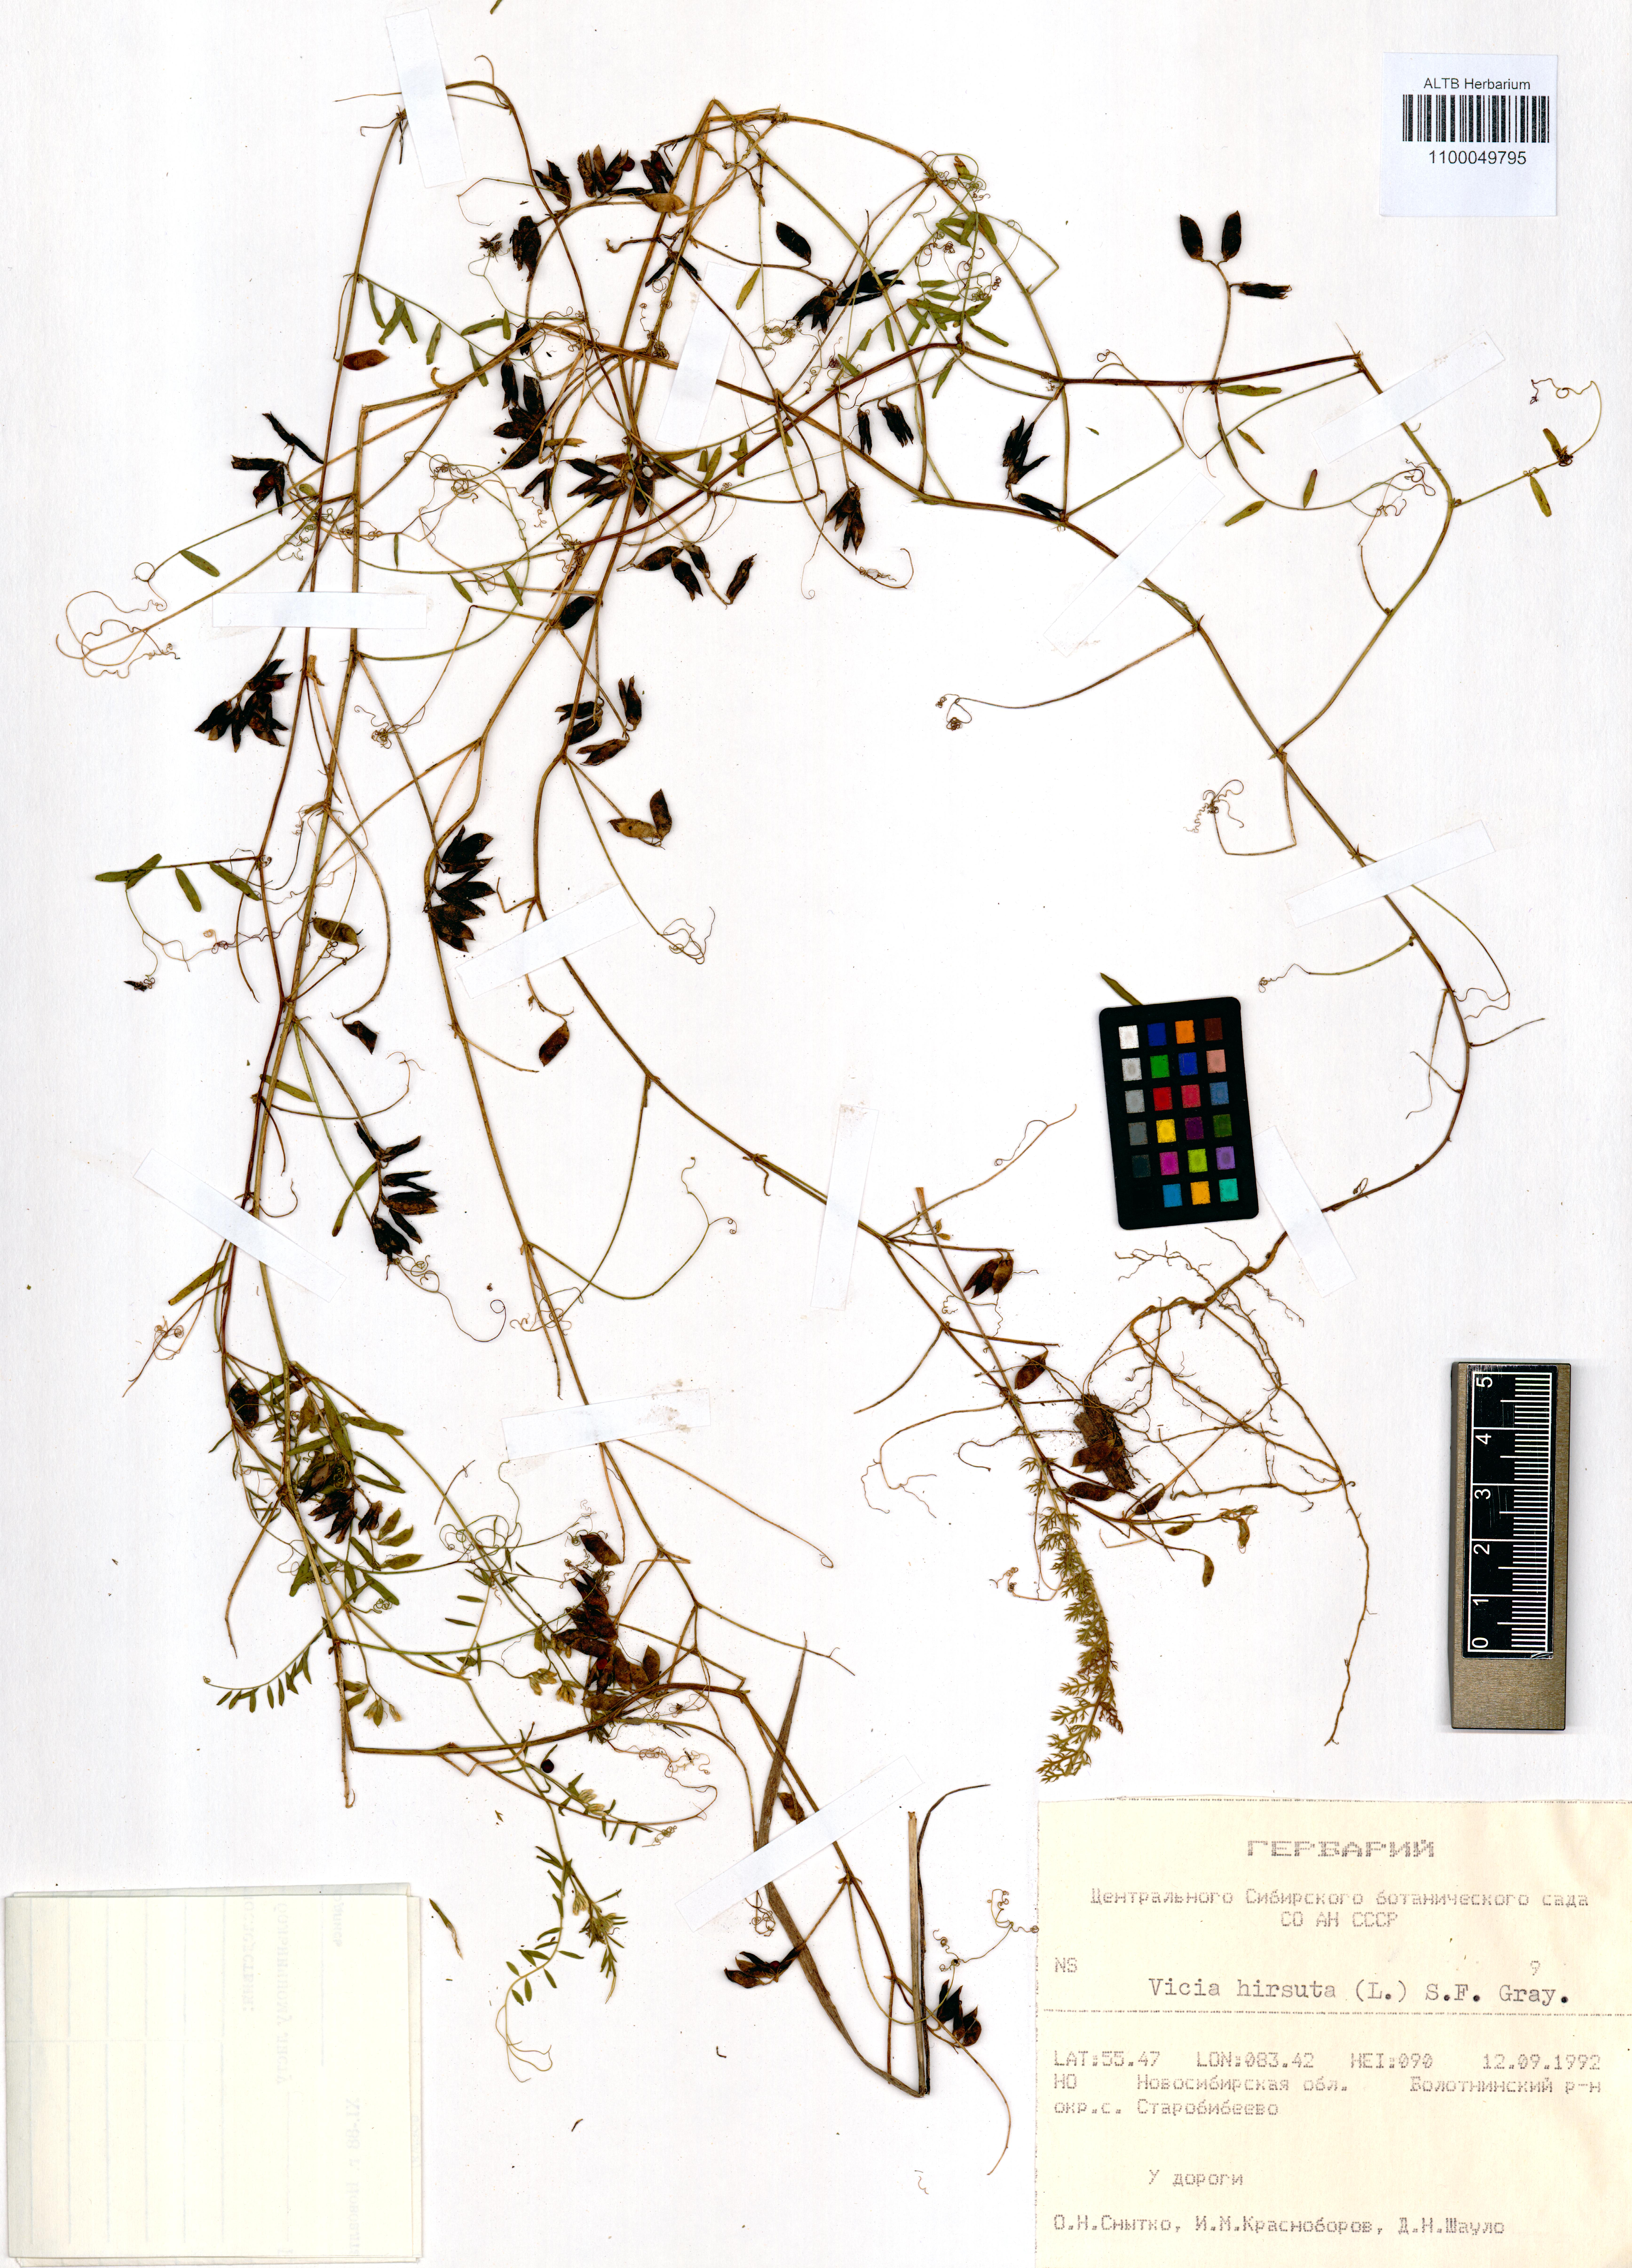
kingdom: Plantae
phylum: Tracheophyta
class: Magnoliopsida
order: Fabales
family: Fabaceae
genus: Vicia
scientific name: Vicia hirsuta
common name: Tiny vetch
